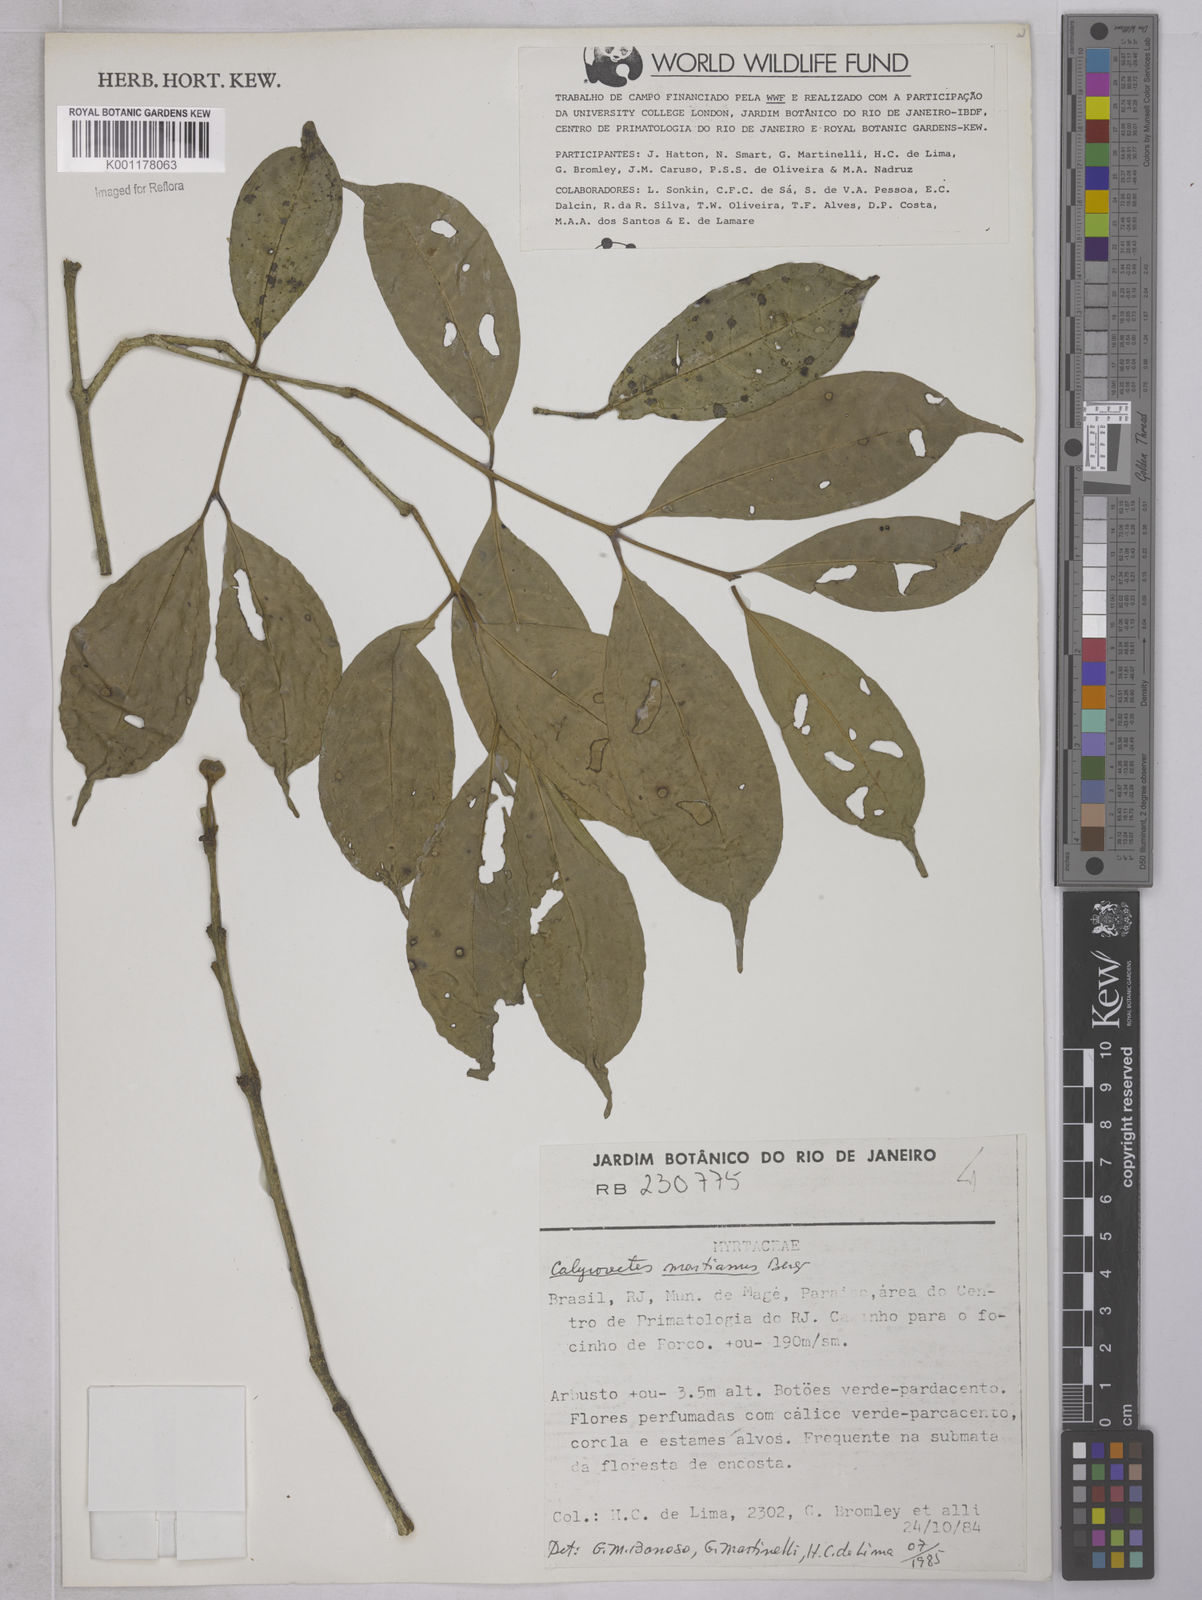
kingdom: Plantae
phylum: Tracheophyta
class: Magnoliopsida
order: Myrtales
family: Myrtaceae
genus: Eugenia
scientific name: Eugenia
